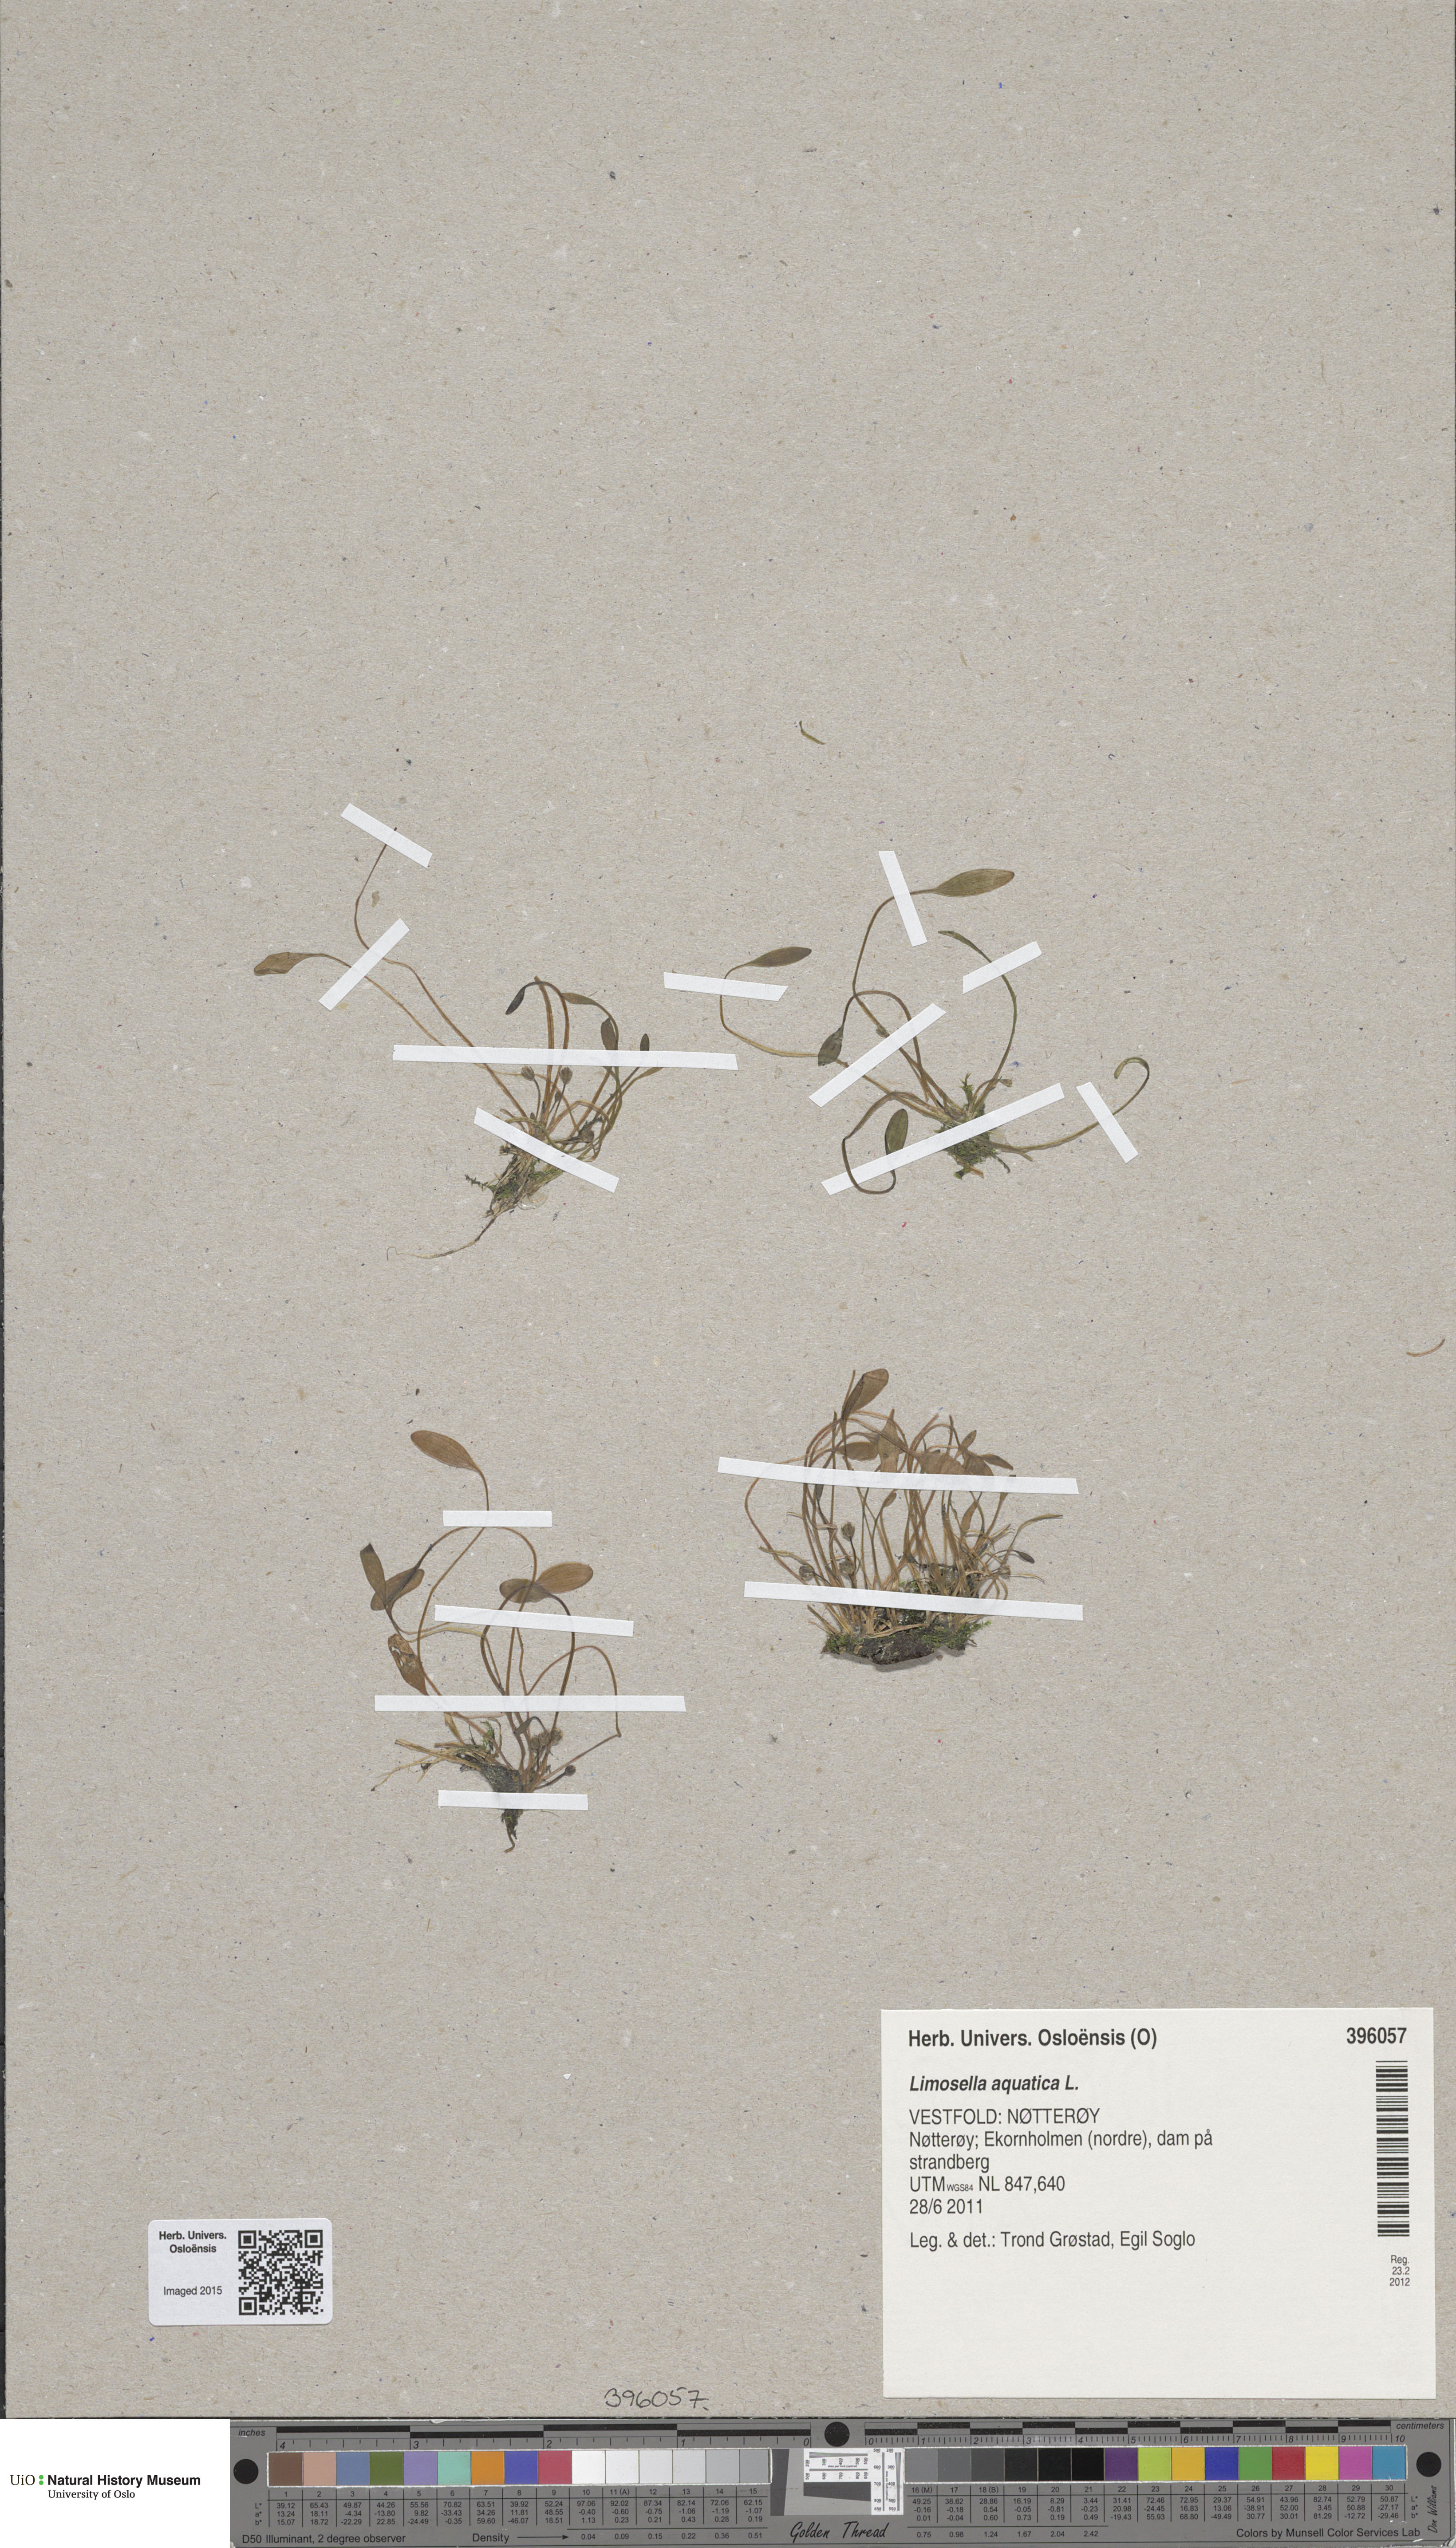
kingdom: Plantae
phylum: Tracheophyta
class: Magnoliopsida
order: Lamiales
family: Scrophulariaceae
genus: Limosella
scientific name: Limosella aquatica
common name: Mudwort
